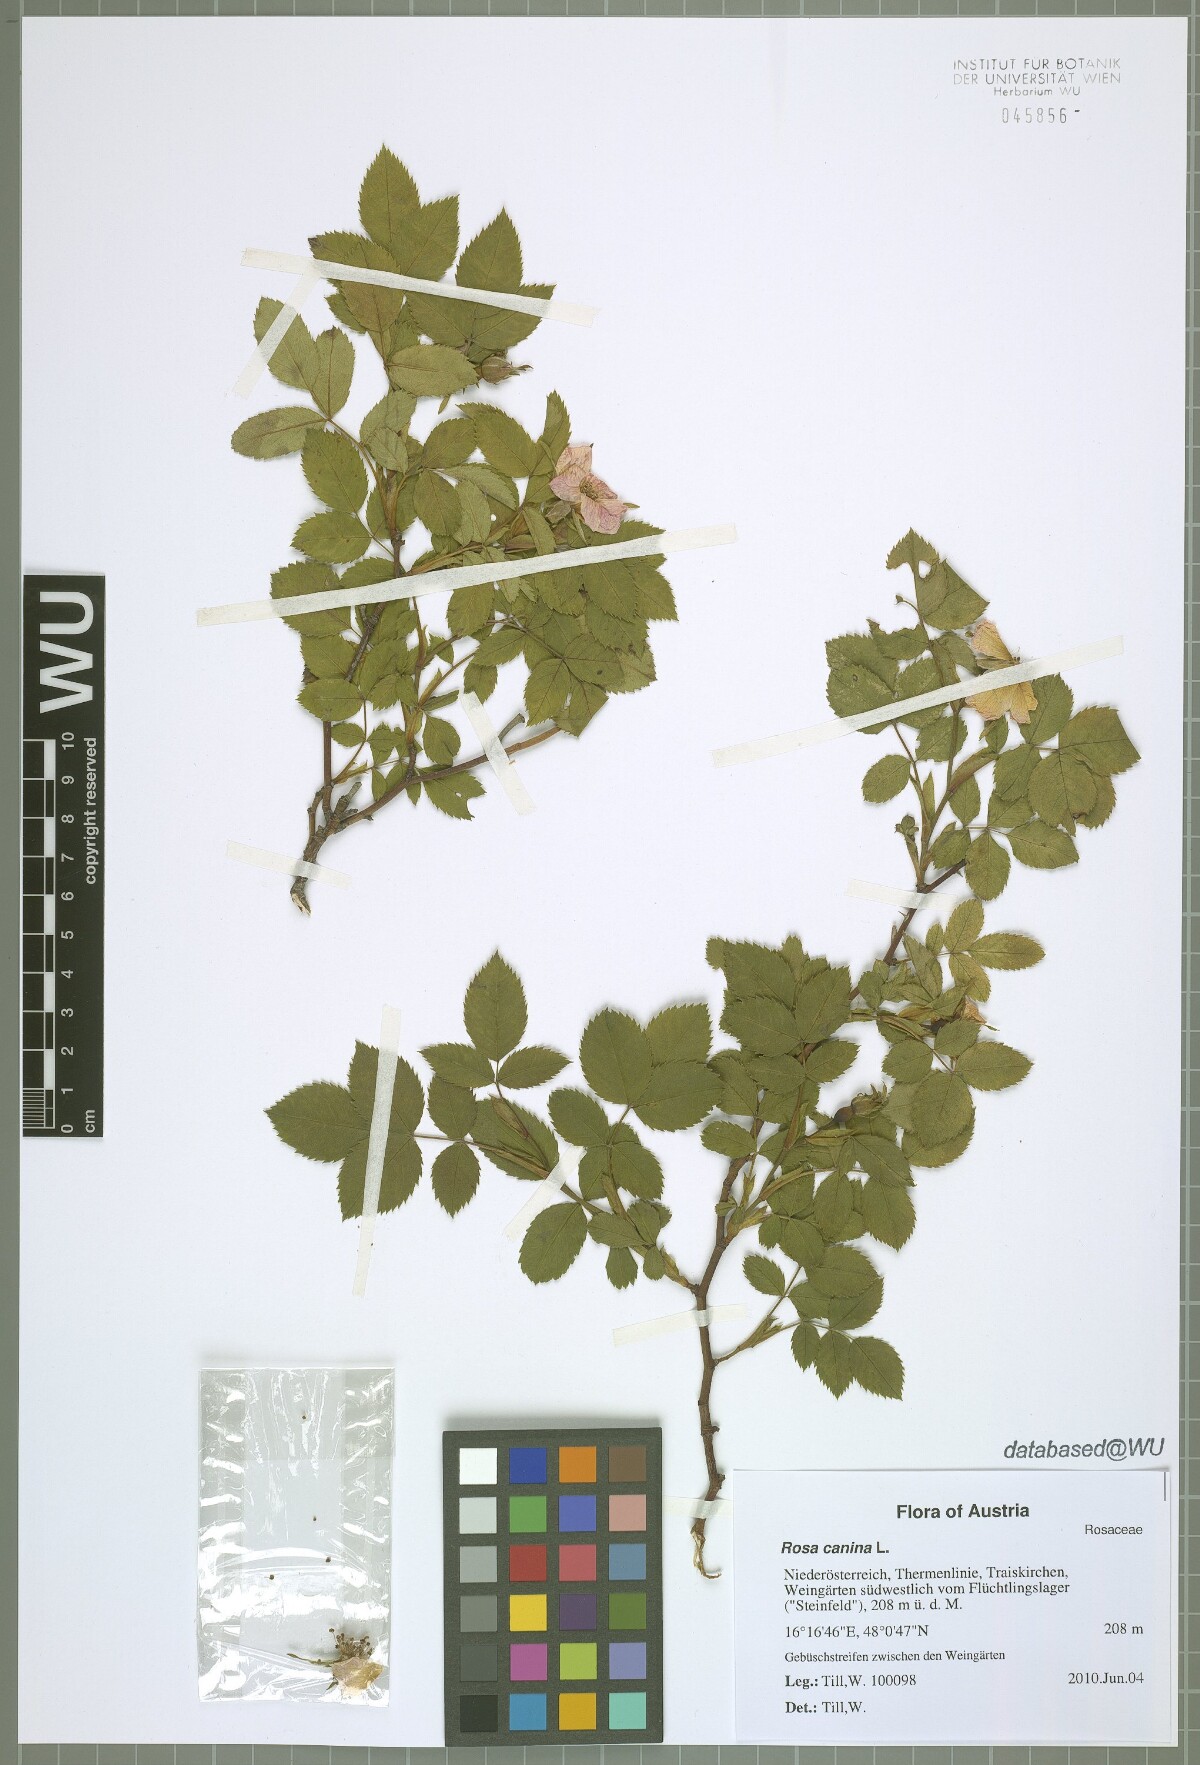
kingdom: Plantae
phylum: Tracheophyta
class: Magnoliopsida
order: Rosales
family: Rosaceae
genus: Rosa
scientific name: Rosa canina
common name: Dog rose
